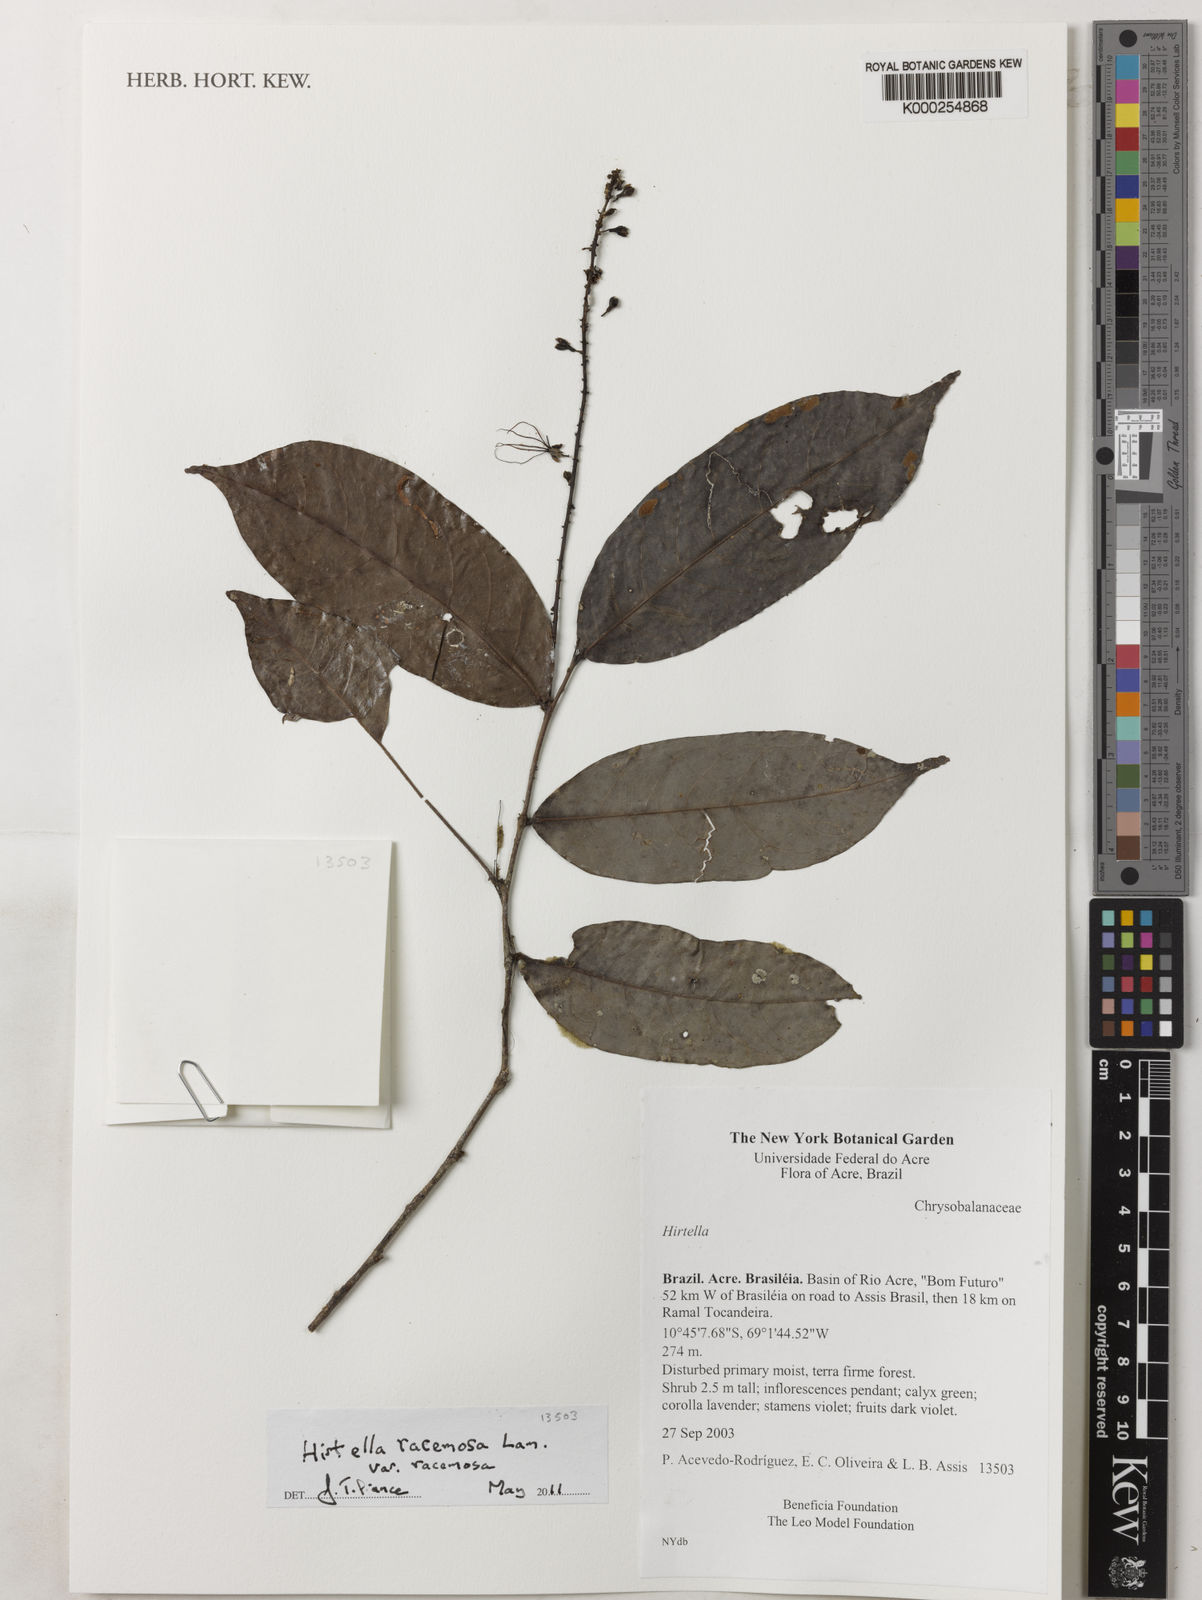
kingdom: Plantae
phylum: Tracheophyta
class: Magnoliopsida
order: Malpighiales
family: Chrysobalanaceae
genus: Hirtella
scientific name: Hirtella racemosa
